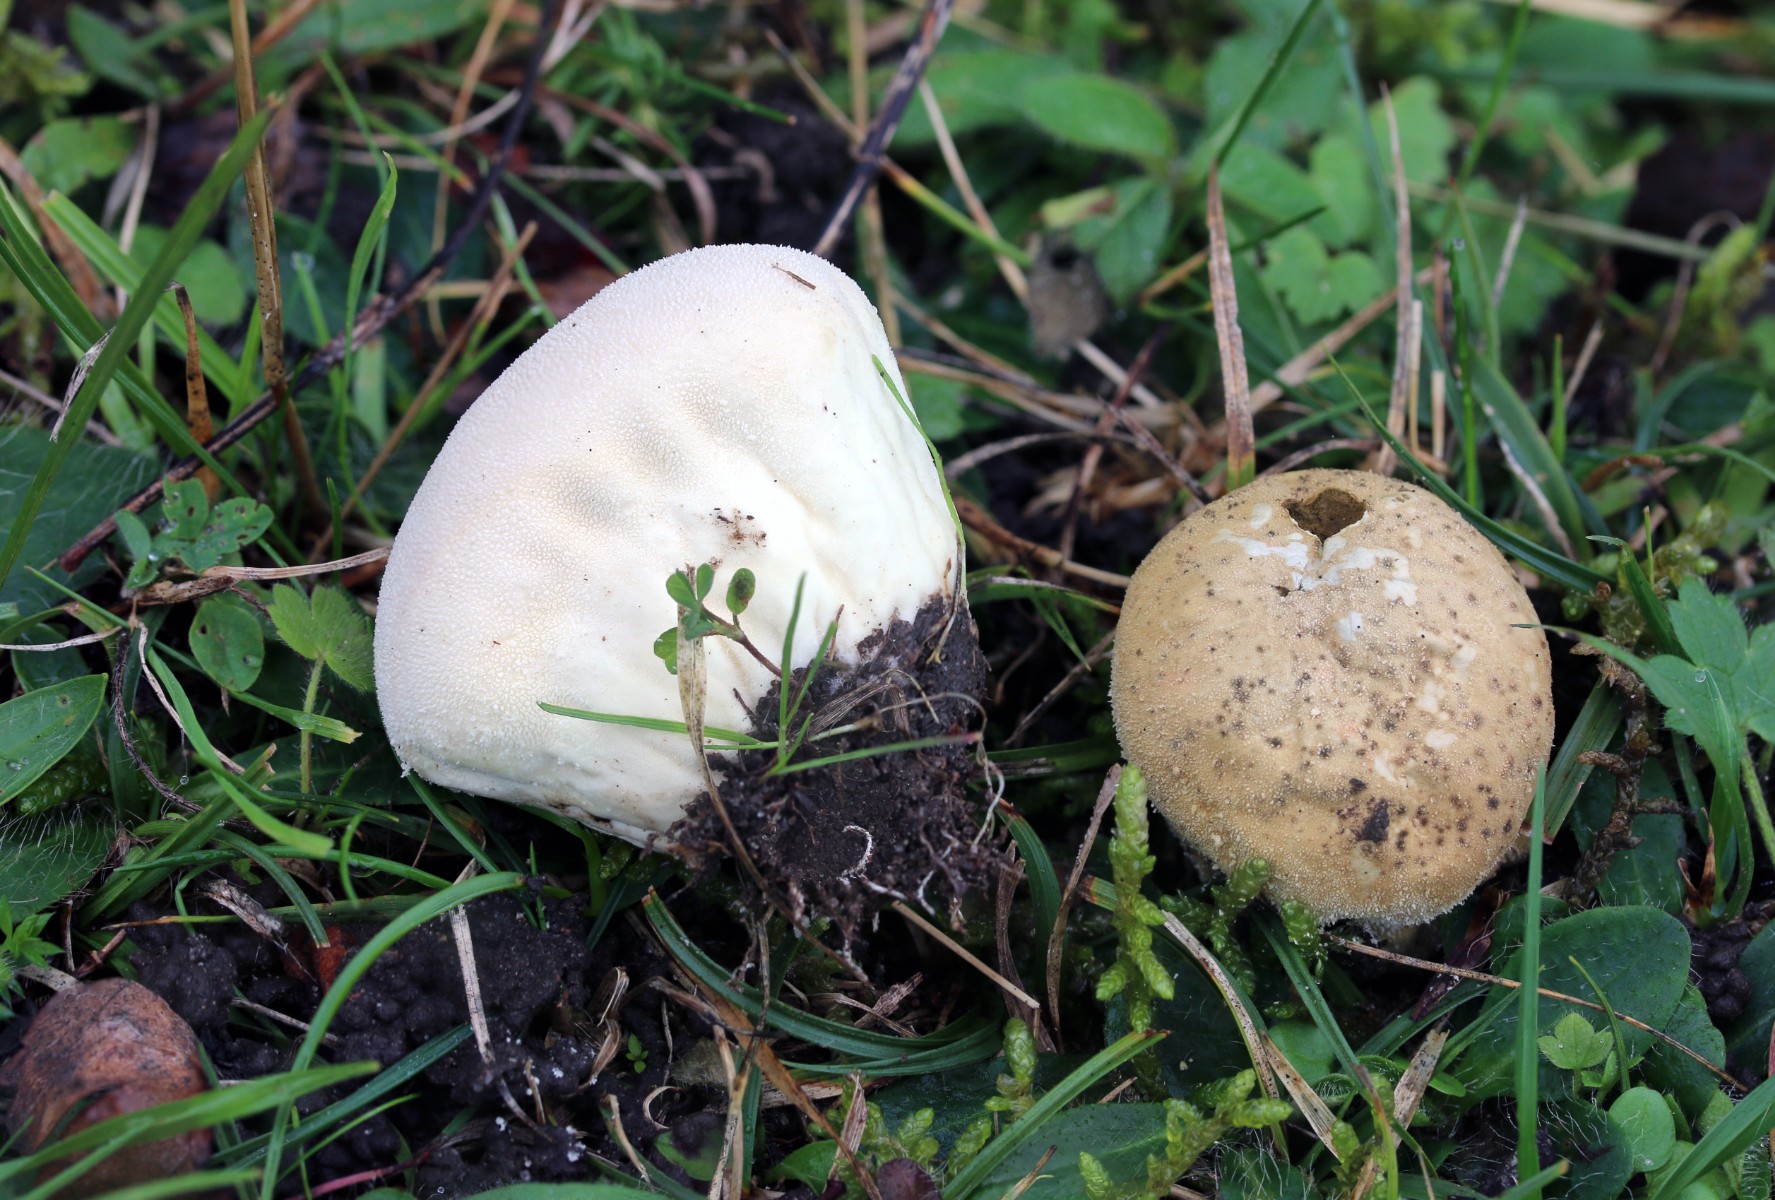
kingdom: Fungi
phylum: Basidiomycota
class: Agaricomycetes
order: Agaricales
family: Lycoperdaceae
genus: Lycoperdon
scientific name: Lycoperdon pratense
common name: flad støvbold
